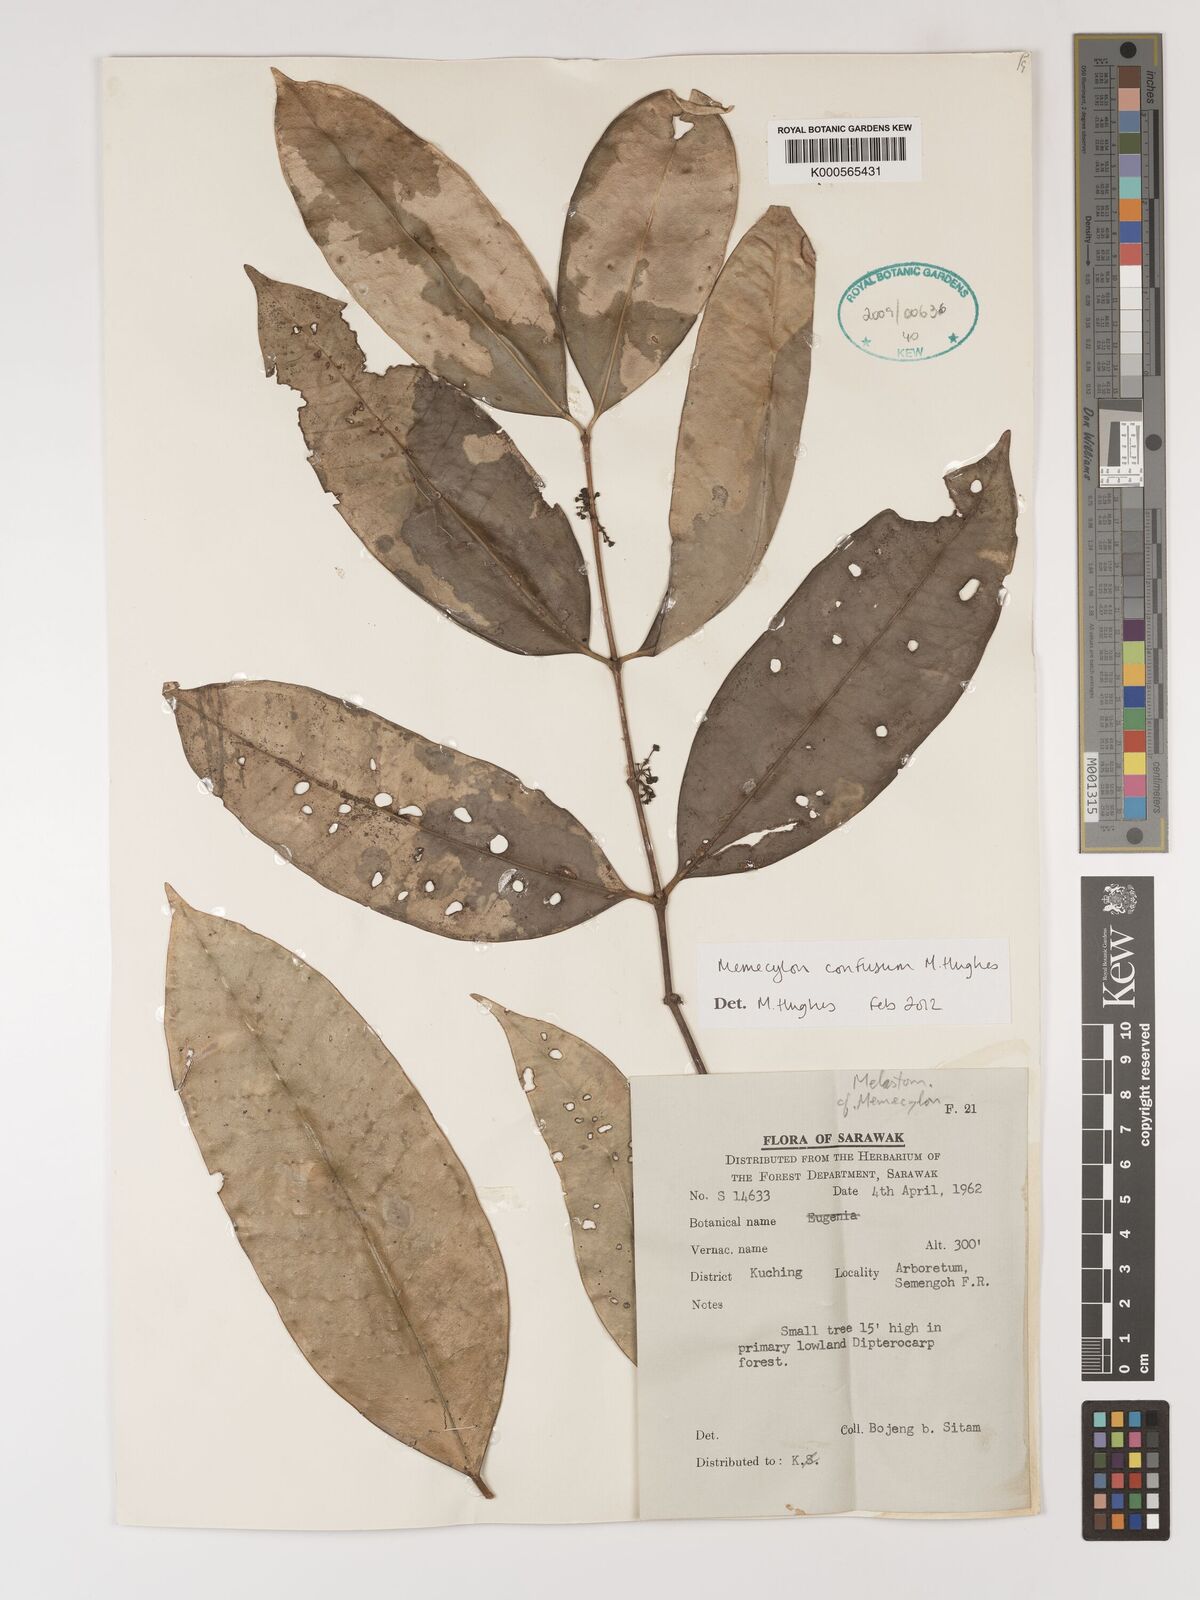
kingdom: Plantae
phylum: Tracheophyta
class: Magnoliopsida
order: Myrtales
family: Melastomataceae
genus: Memecylon
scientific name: Memecylon confusum
